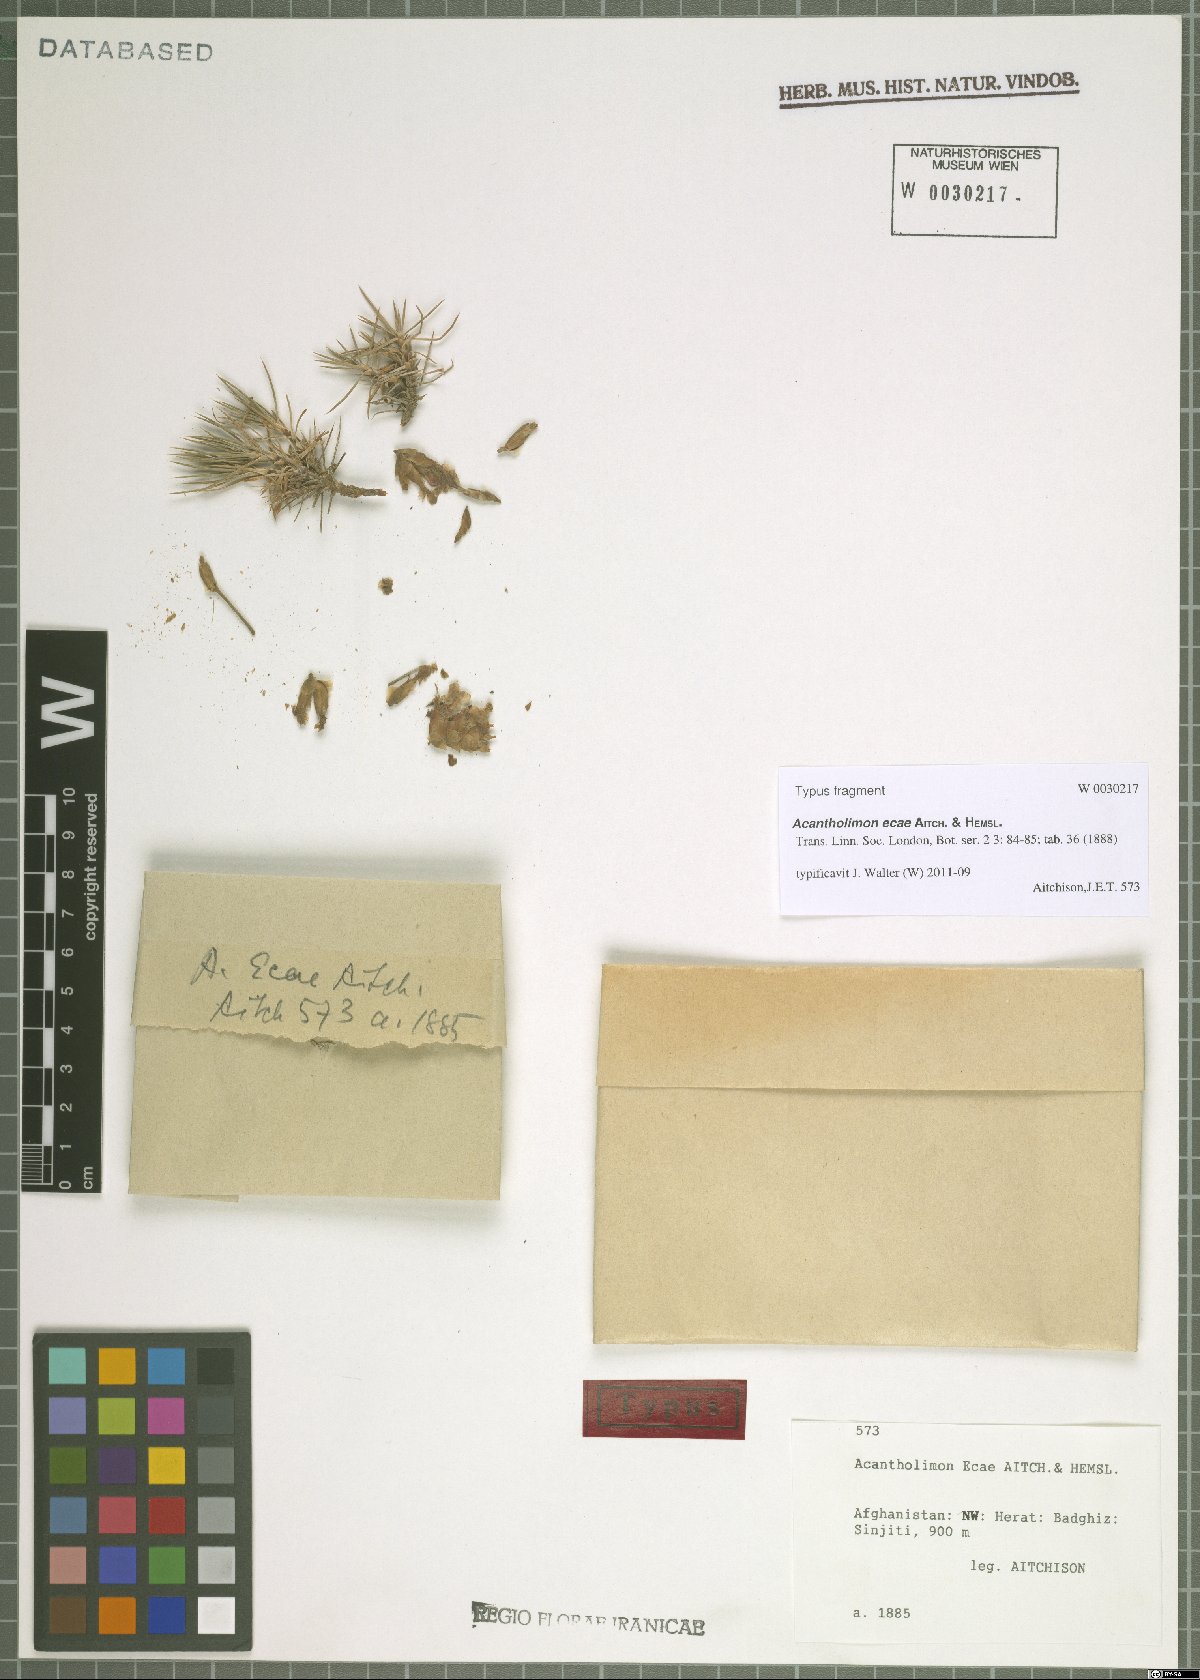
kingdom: Plantae
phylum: Tracheophyta
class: Magnoliopsida
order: Caryophyllales
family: Plumbaginaceae
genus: Acantholimon
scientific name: Acantholimon ecae
